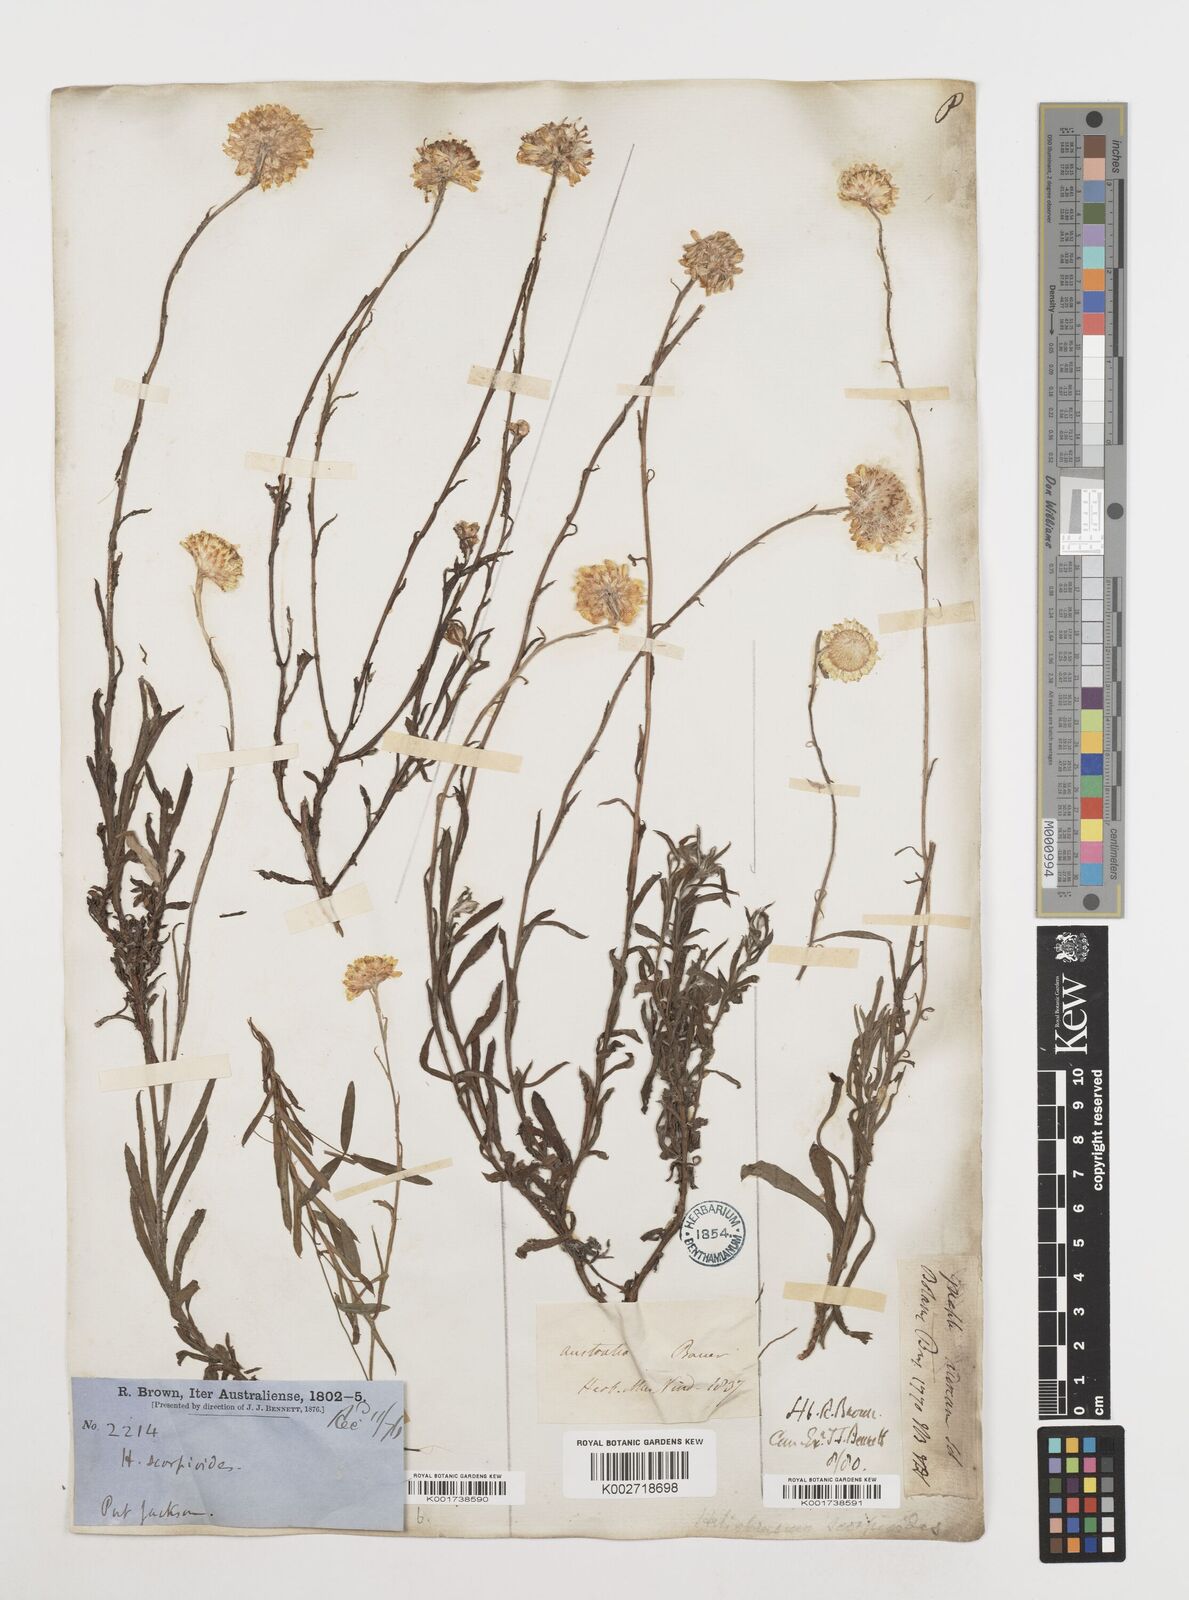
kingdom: Plantae
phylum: Tracheophyta
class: Magnoliopsida
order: Asterales
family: Asteraceae
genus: Coronidium
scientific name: Coronidium scorpioides
